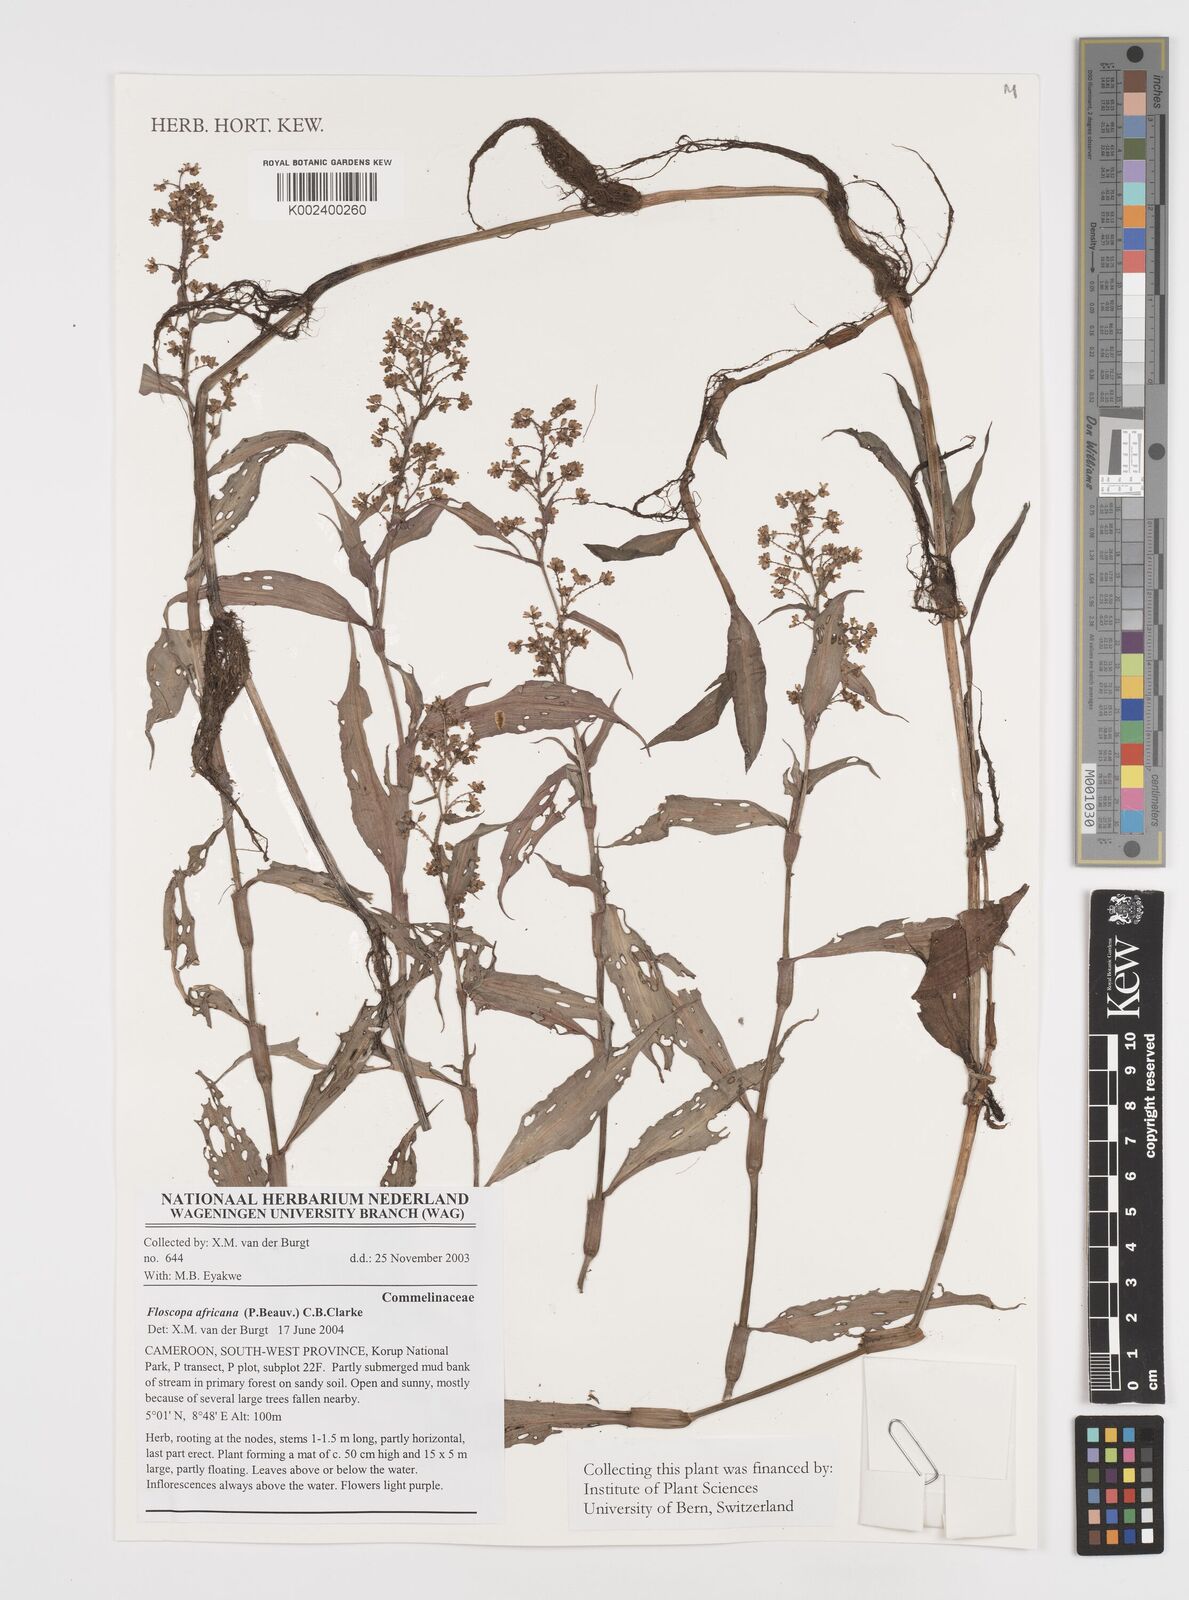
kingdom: Plantae
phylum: Tracheophyta
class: Liliopsida
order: Commelinales
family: Commelinaceae
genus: Floscopa
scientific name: Floscopa africana
